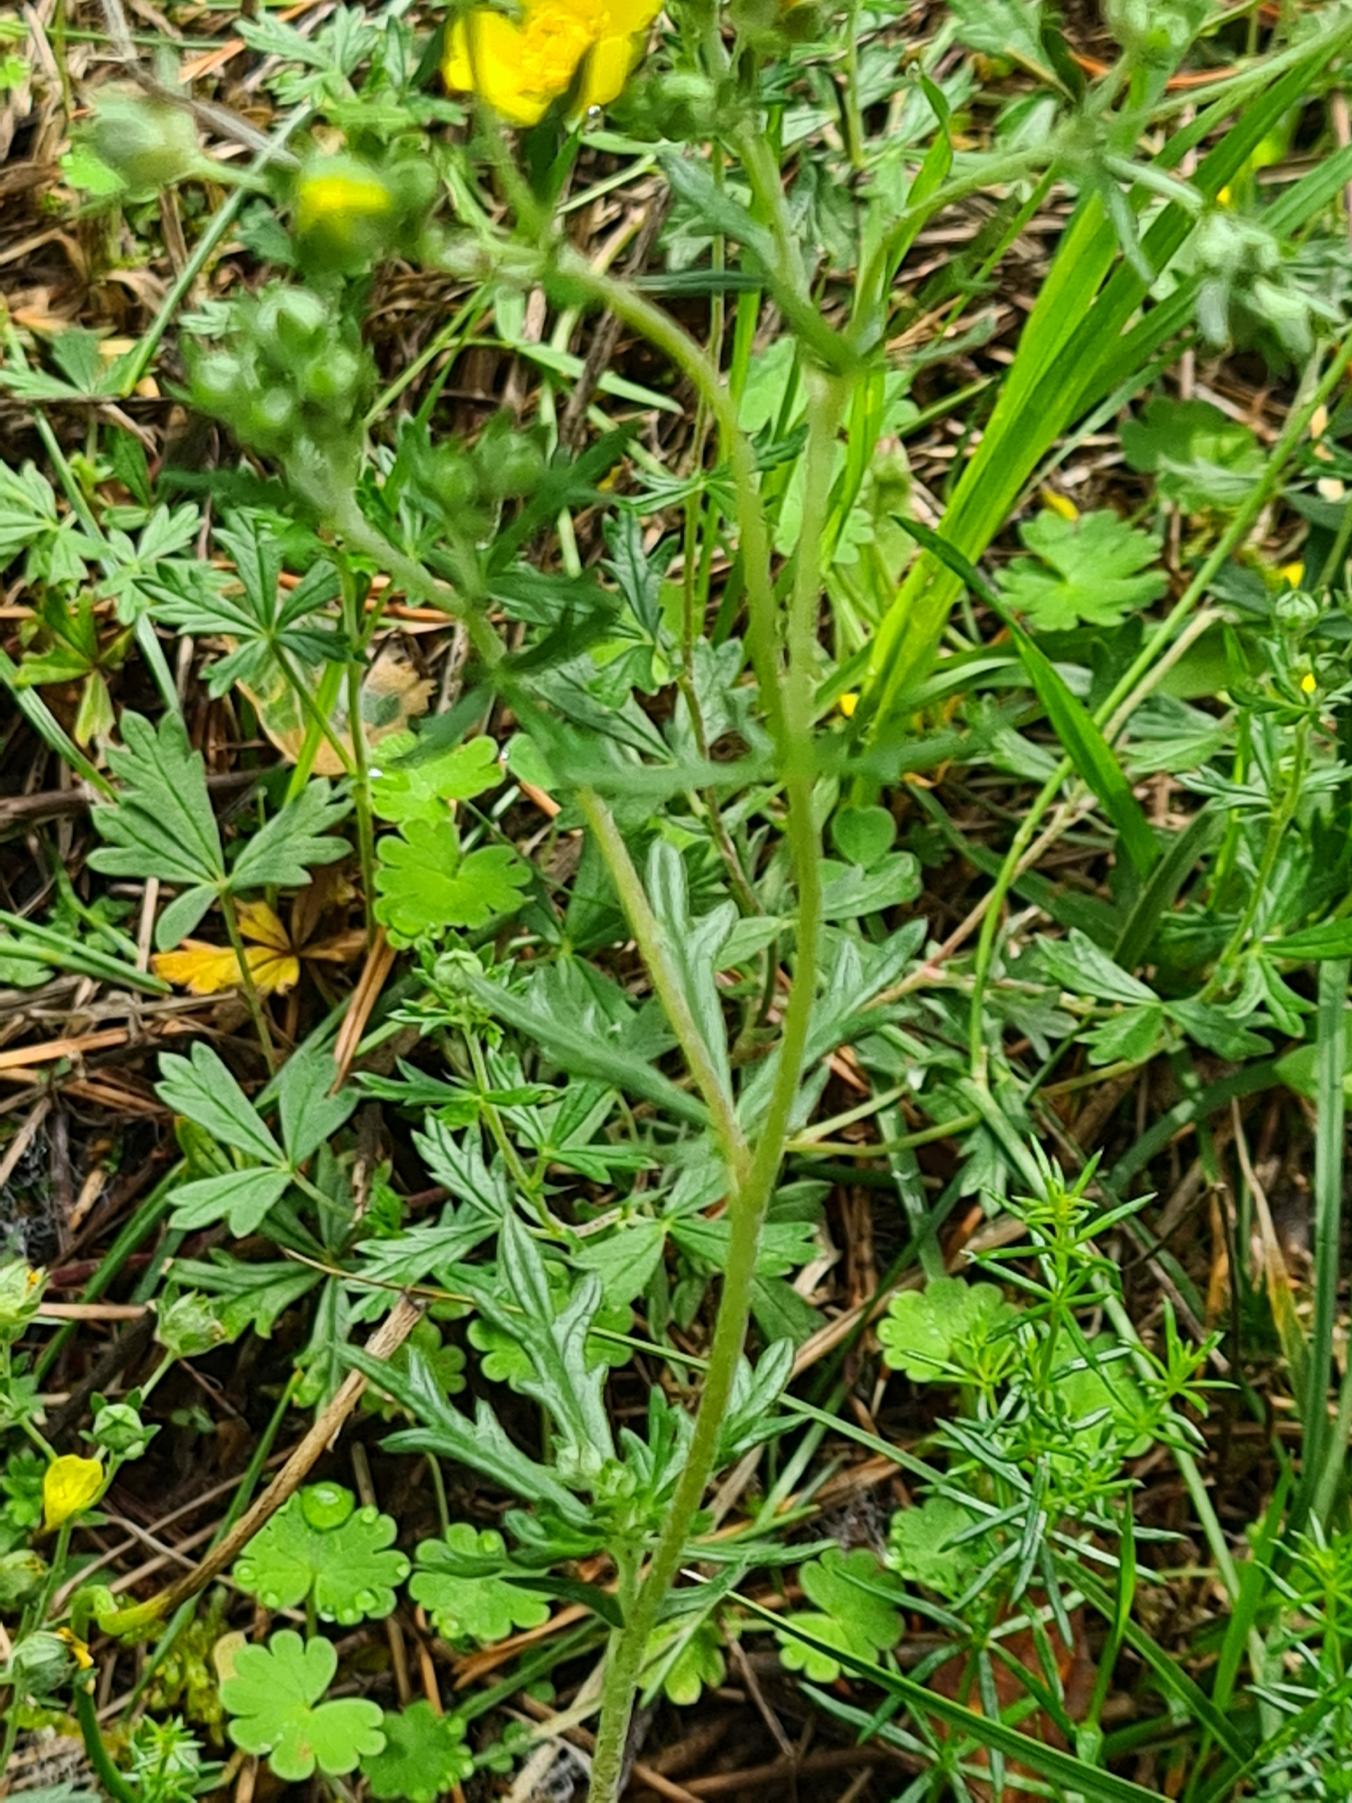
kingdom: Plantae
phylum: Tracheophyta
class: Magnoliopsida
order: Rosales
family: Rosaceae
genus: Potentilla
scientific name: Potentilla argentea
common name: Sølv-potentil
